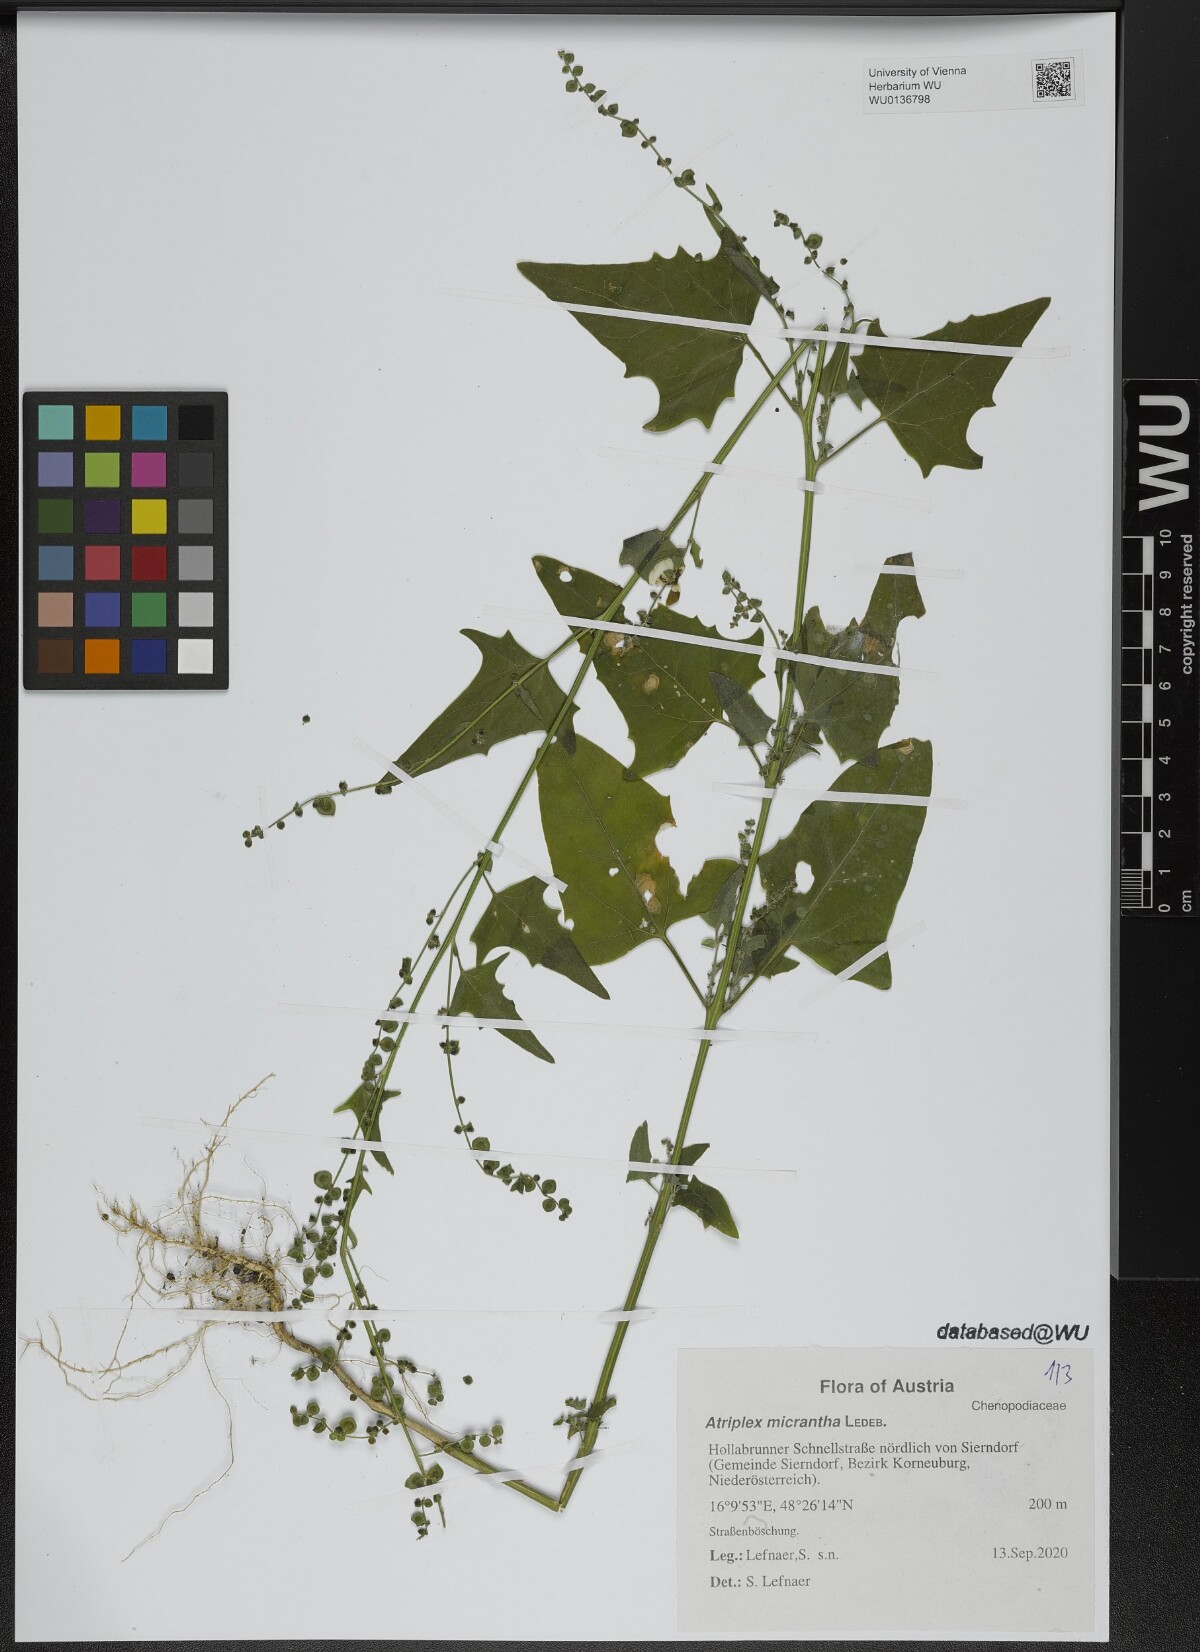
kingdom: Plantae
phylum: Tracheophyta
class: Magnoliopsida
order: Caryophyllales
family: Amaranthaceae
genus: Atriplex
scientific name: Atriplex micrantha
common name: Twoscale saltbush
